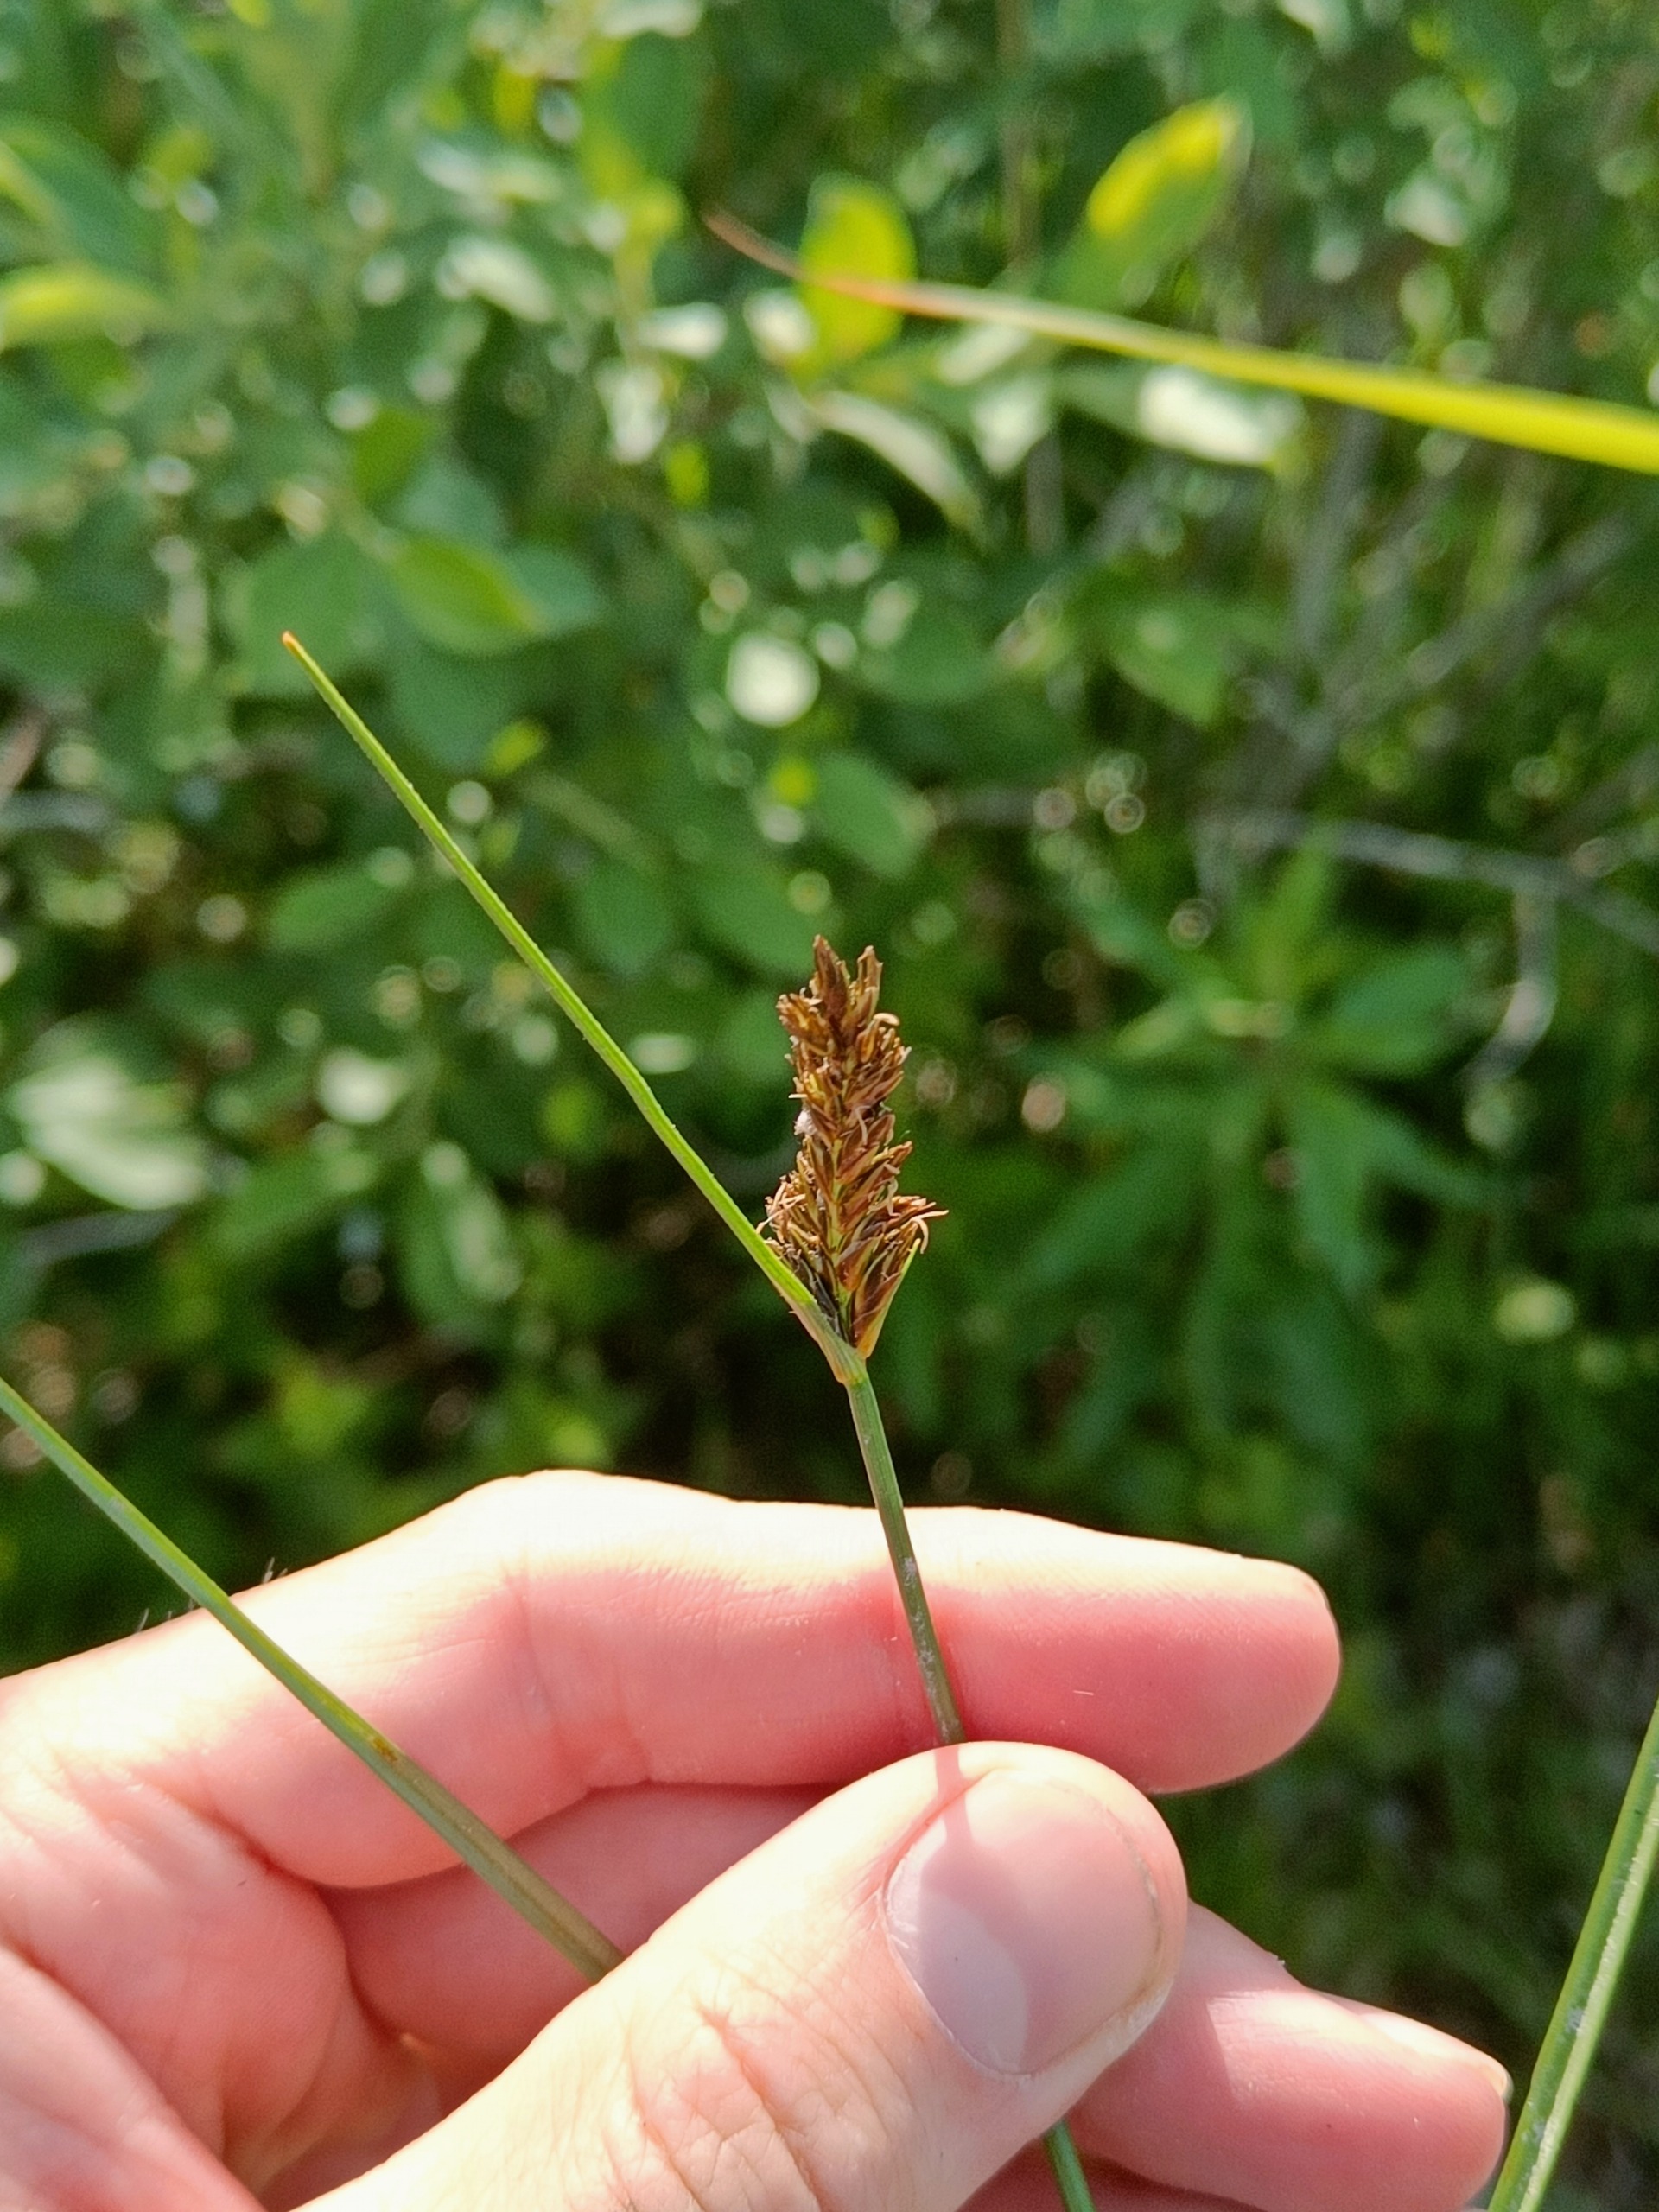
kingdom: Plantae
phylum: Tracheophyta
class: Liliopsida
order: Poales
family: Cyperaceae
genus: Blysmus
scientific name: Blysmus compressus
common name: Fladtrykt kogleaks
